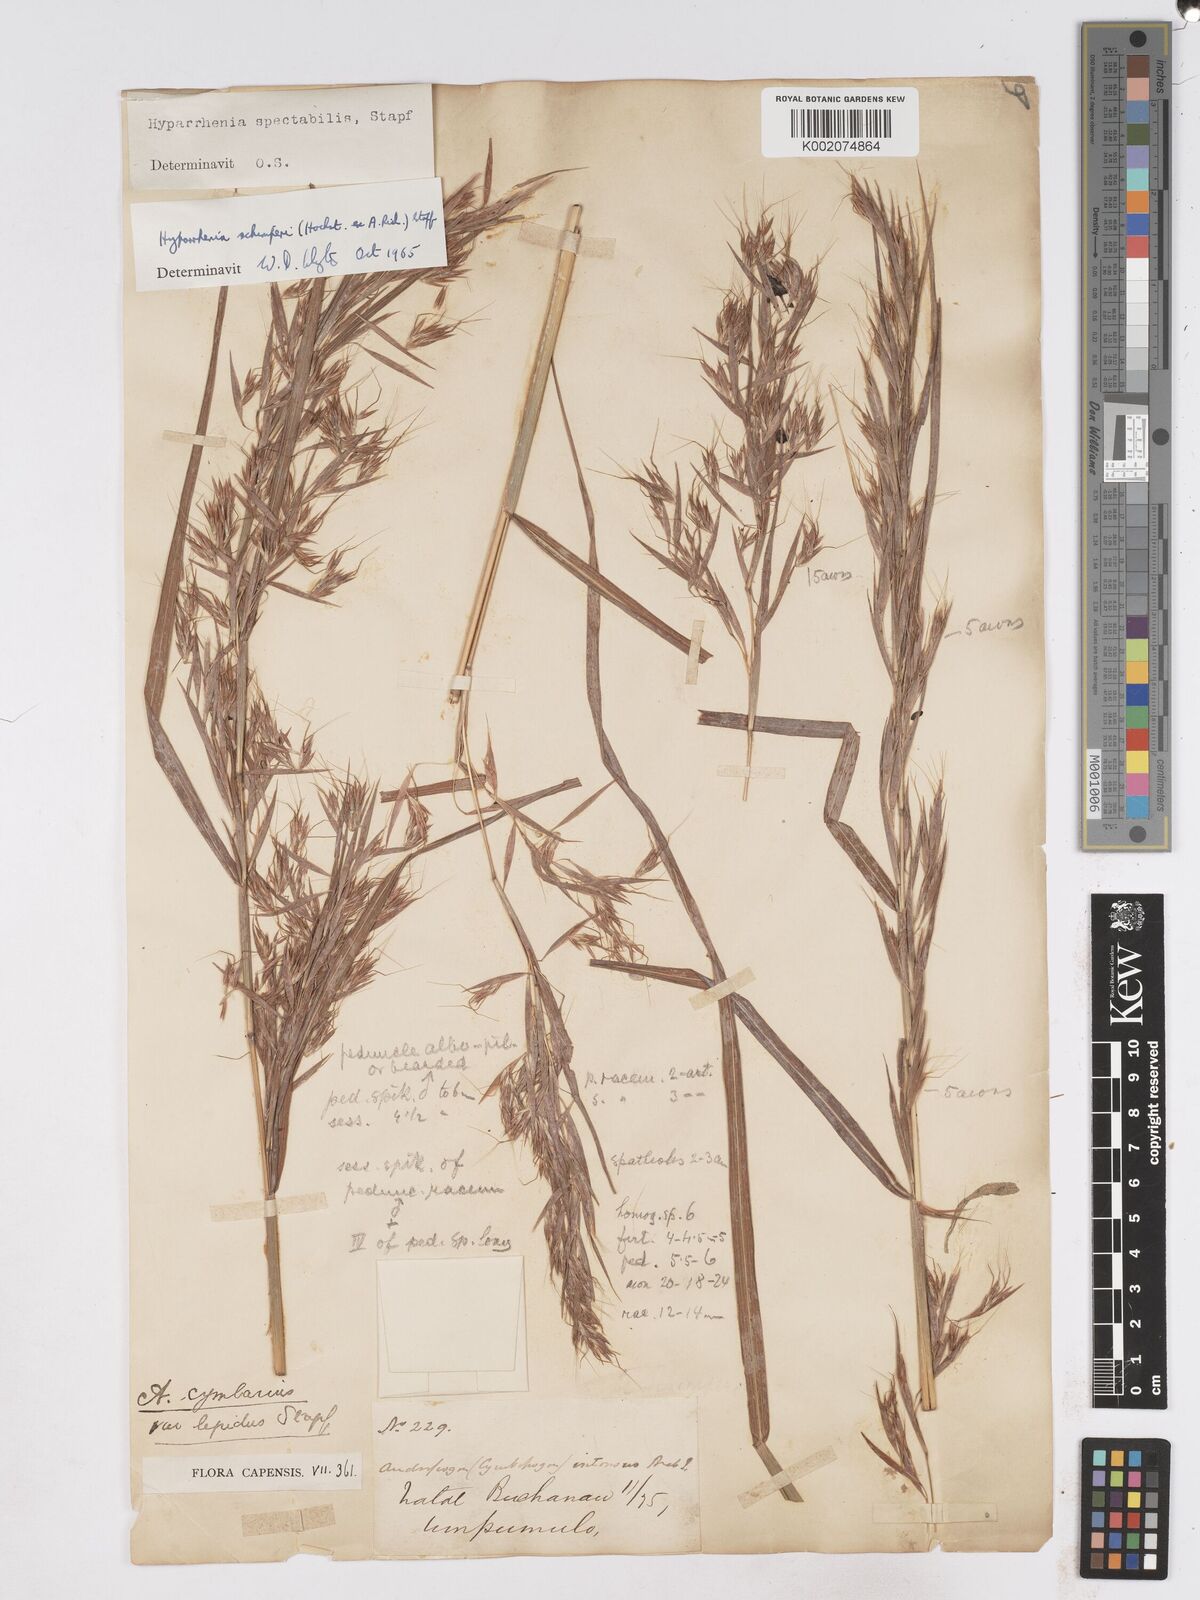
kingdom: Plantae
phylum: Tracheophyta
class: Liliopsida
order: Poales
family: Poaceae
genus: Hyparrhenia
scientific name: Hyparrhenia schimperi
